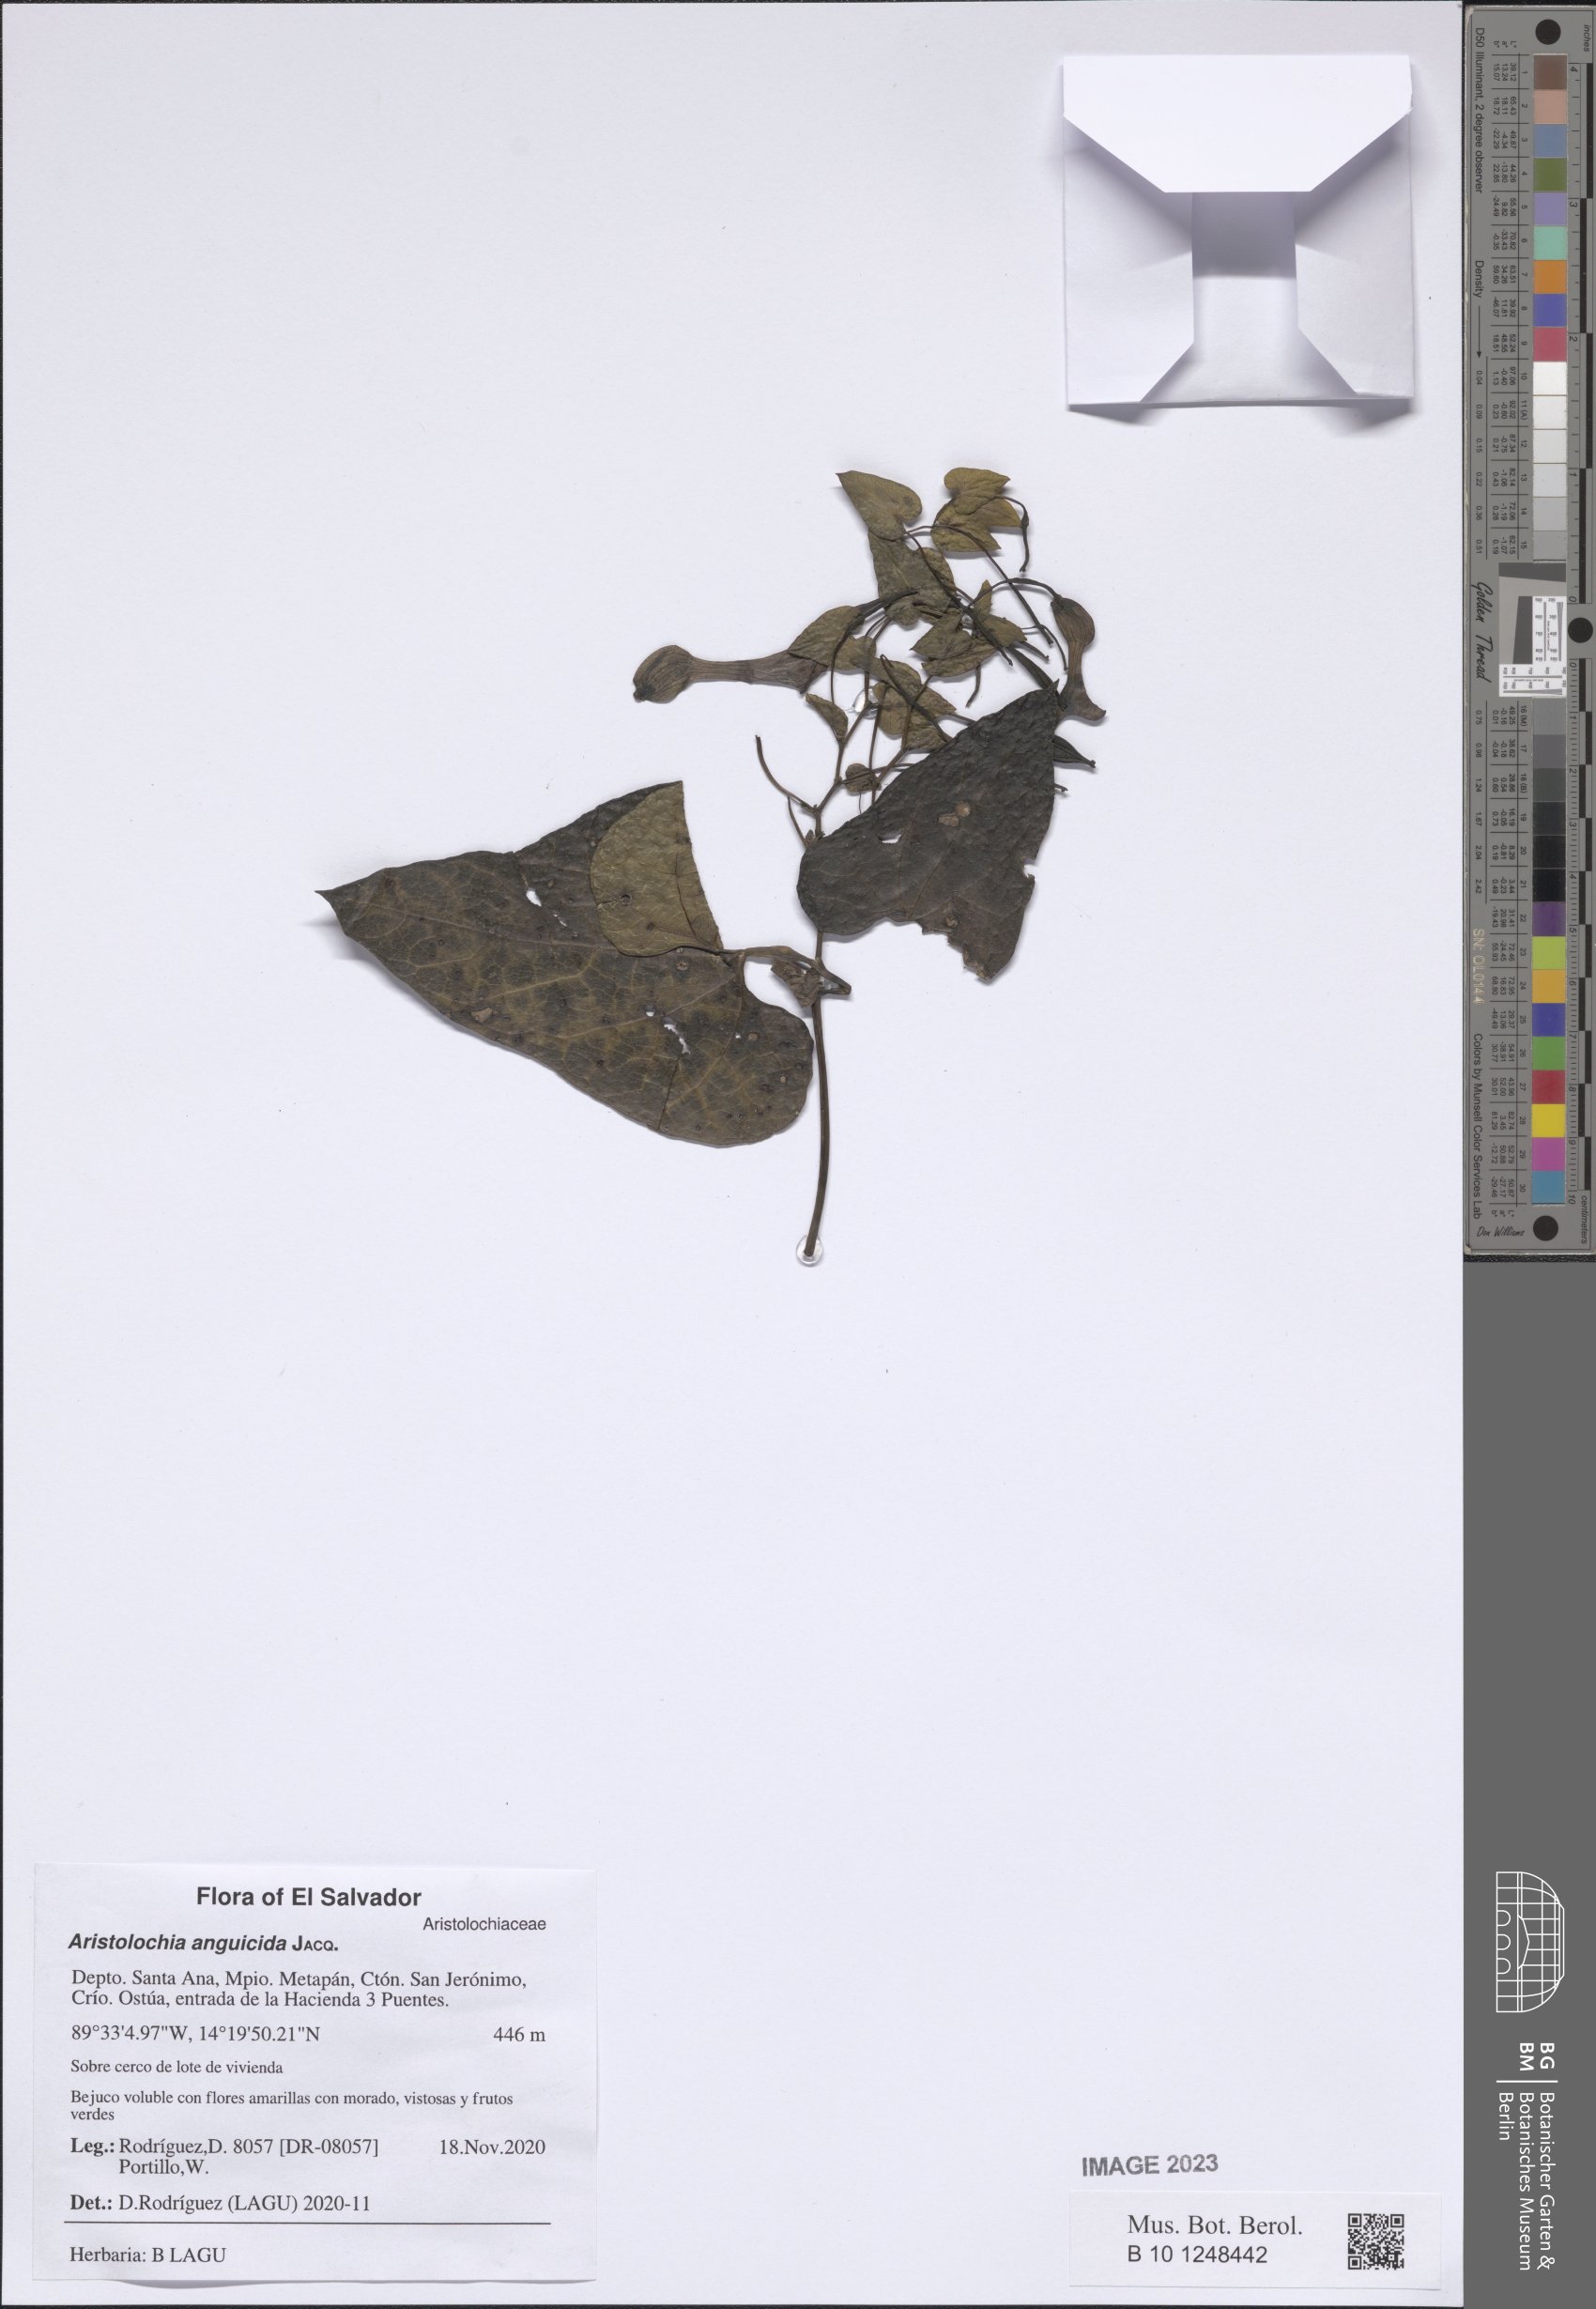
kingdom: Plantae
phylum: Tracheophyta
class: Magnoliopsida
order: Piperales
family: Aristolochiaceae
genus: Aristolochia
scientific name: Aristolochia anguicida
